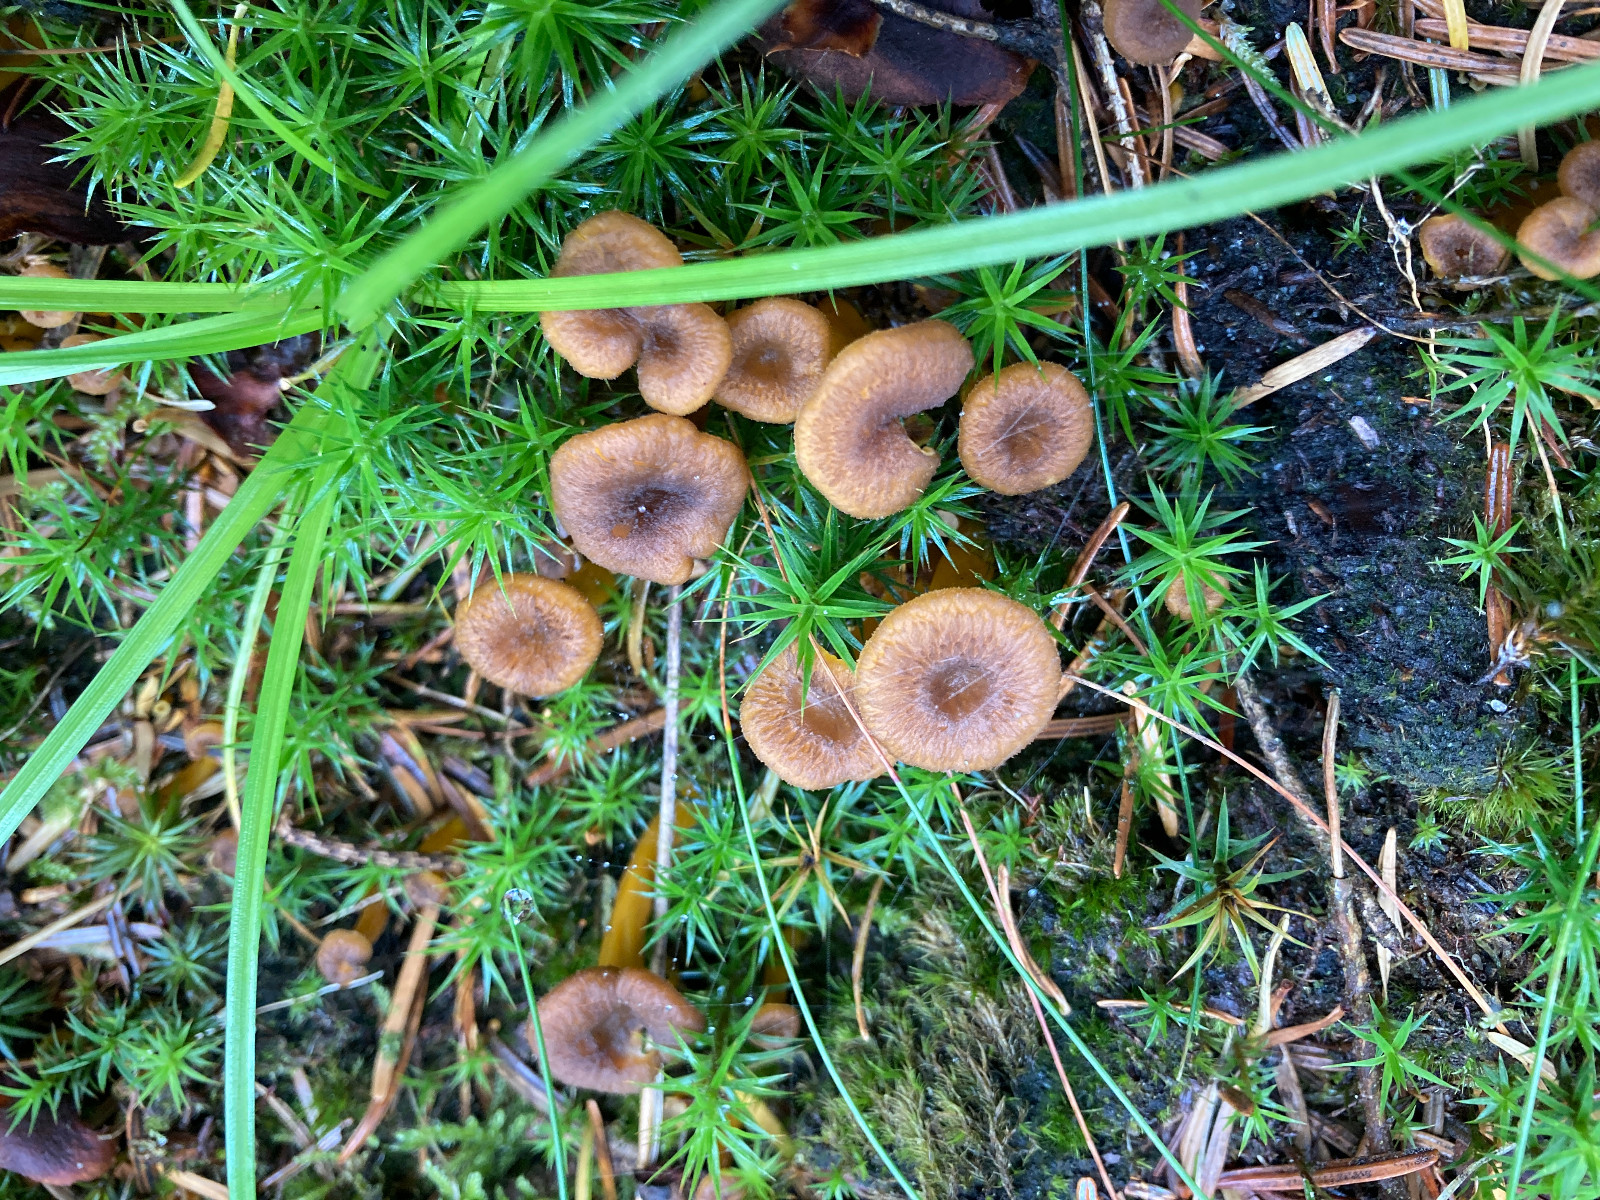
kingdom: Fungi
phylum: Basidiomycota
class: Agaricomycetes
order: Cantharellales
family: Hydnaceae
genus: Craterellus
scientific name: Craterellus tubaeformis
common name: tragt-kantarel
